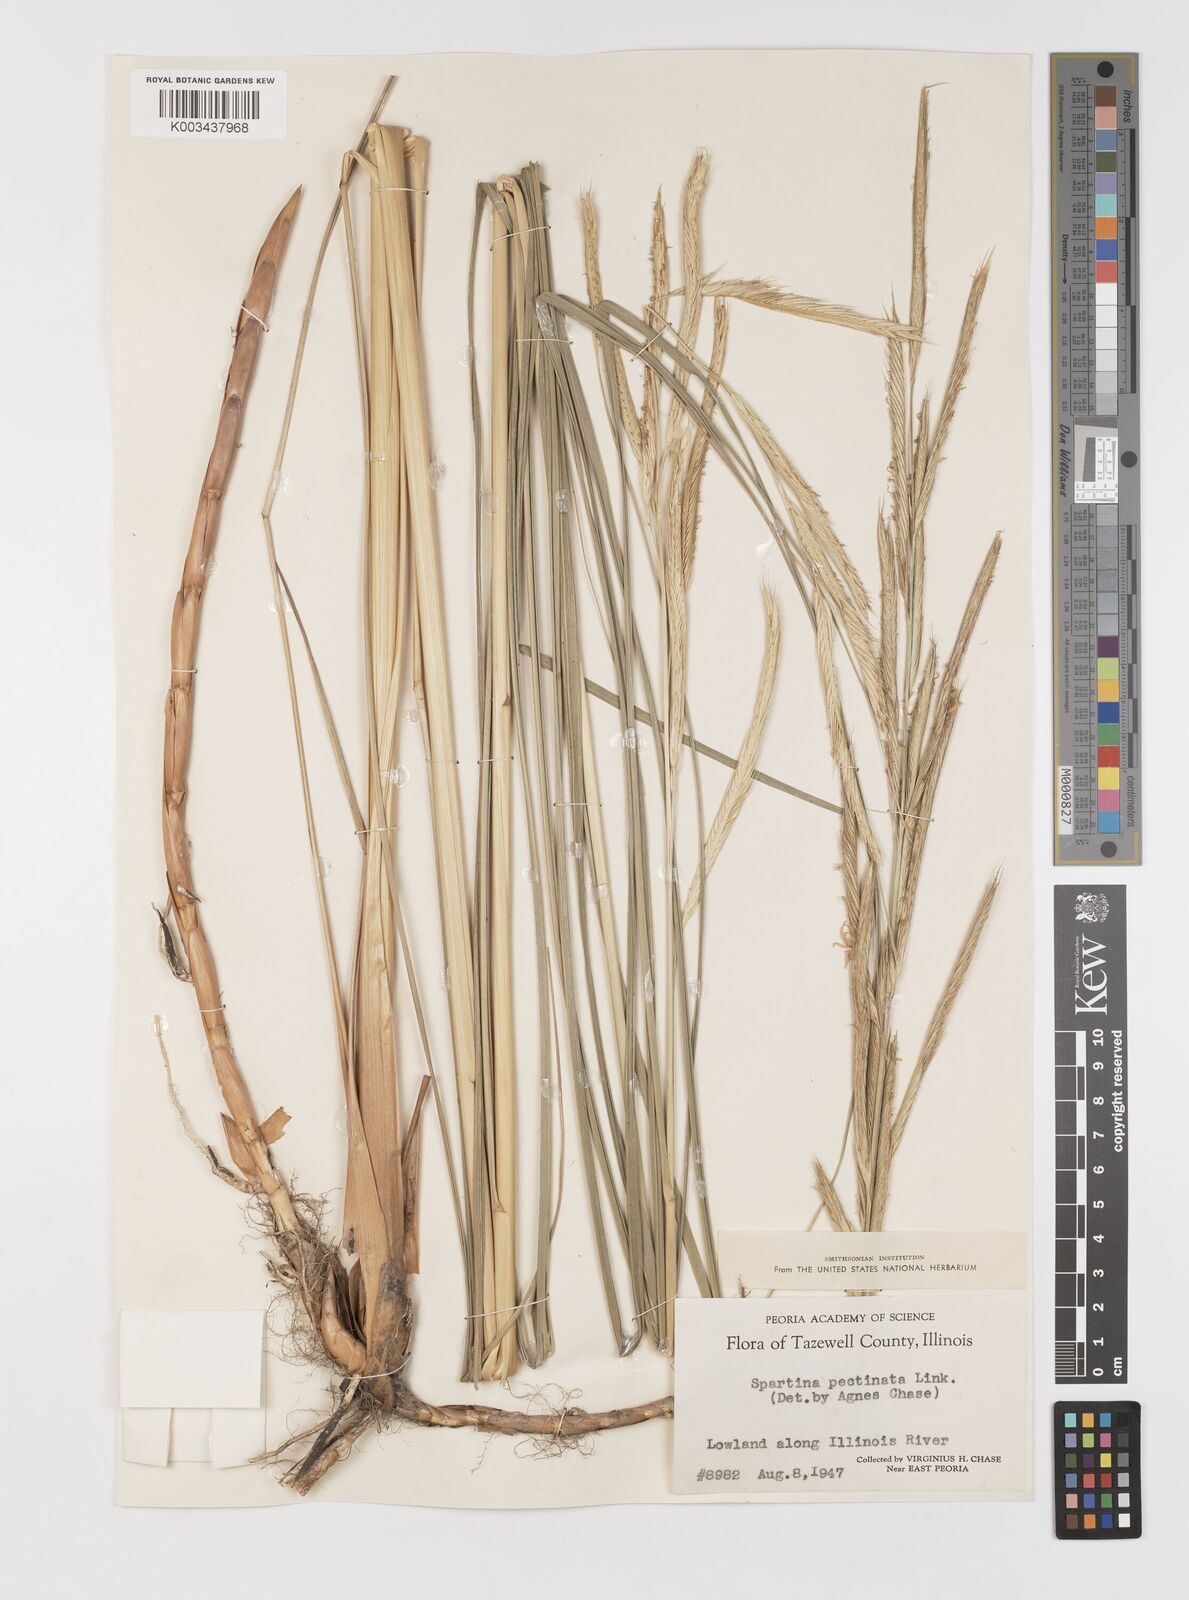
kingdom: Plantae
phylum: Tracheophyta
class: Liliopsida
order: Poales
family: Poaceae
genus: Sporobolus
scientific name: Sporobolus michauxianus
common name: Freshwater cordgrass
